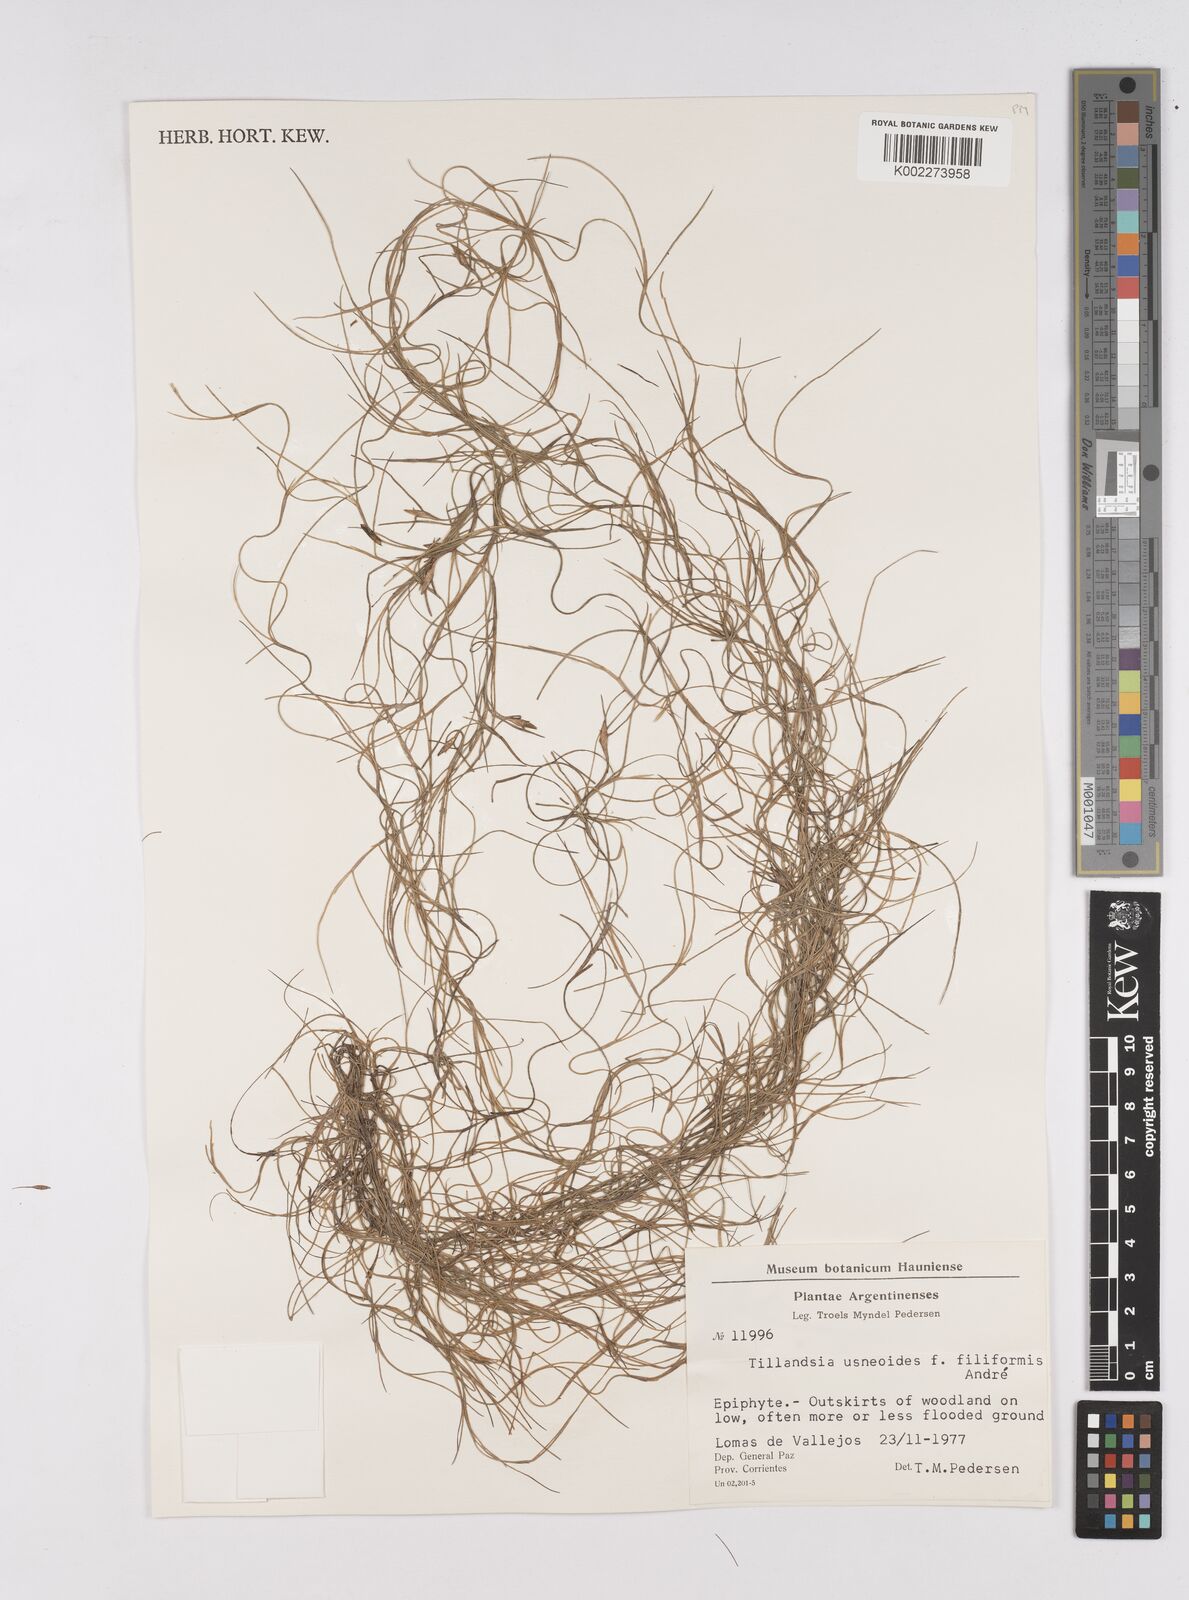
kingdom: Plantae
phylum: Tracheophyta
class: Liliopsida
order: Poales
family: Bromeliaceae
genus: Tillandsia
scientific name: Tillandsia usneoides
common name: Spanish moss
